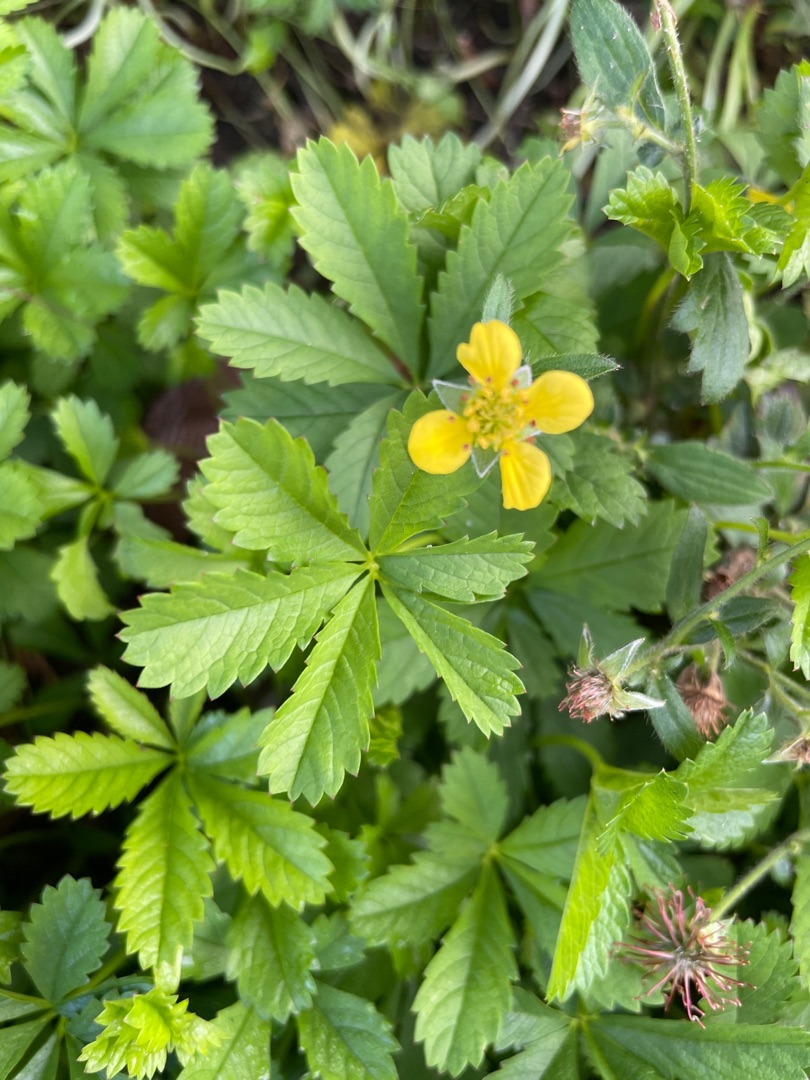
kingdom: Plantae
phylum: Tracheophyta
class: Magnoliopsida
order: Rosales
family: Rosaceae
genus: Potentilla
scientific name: Potentilla reptans
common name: Krybende potentil
